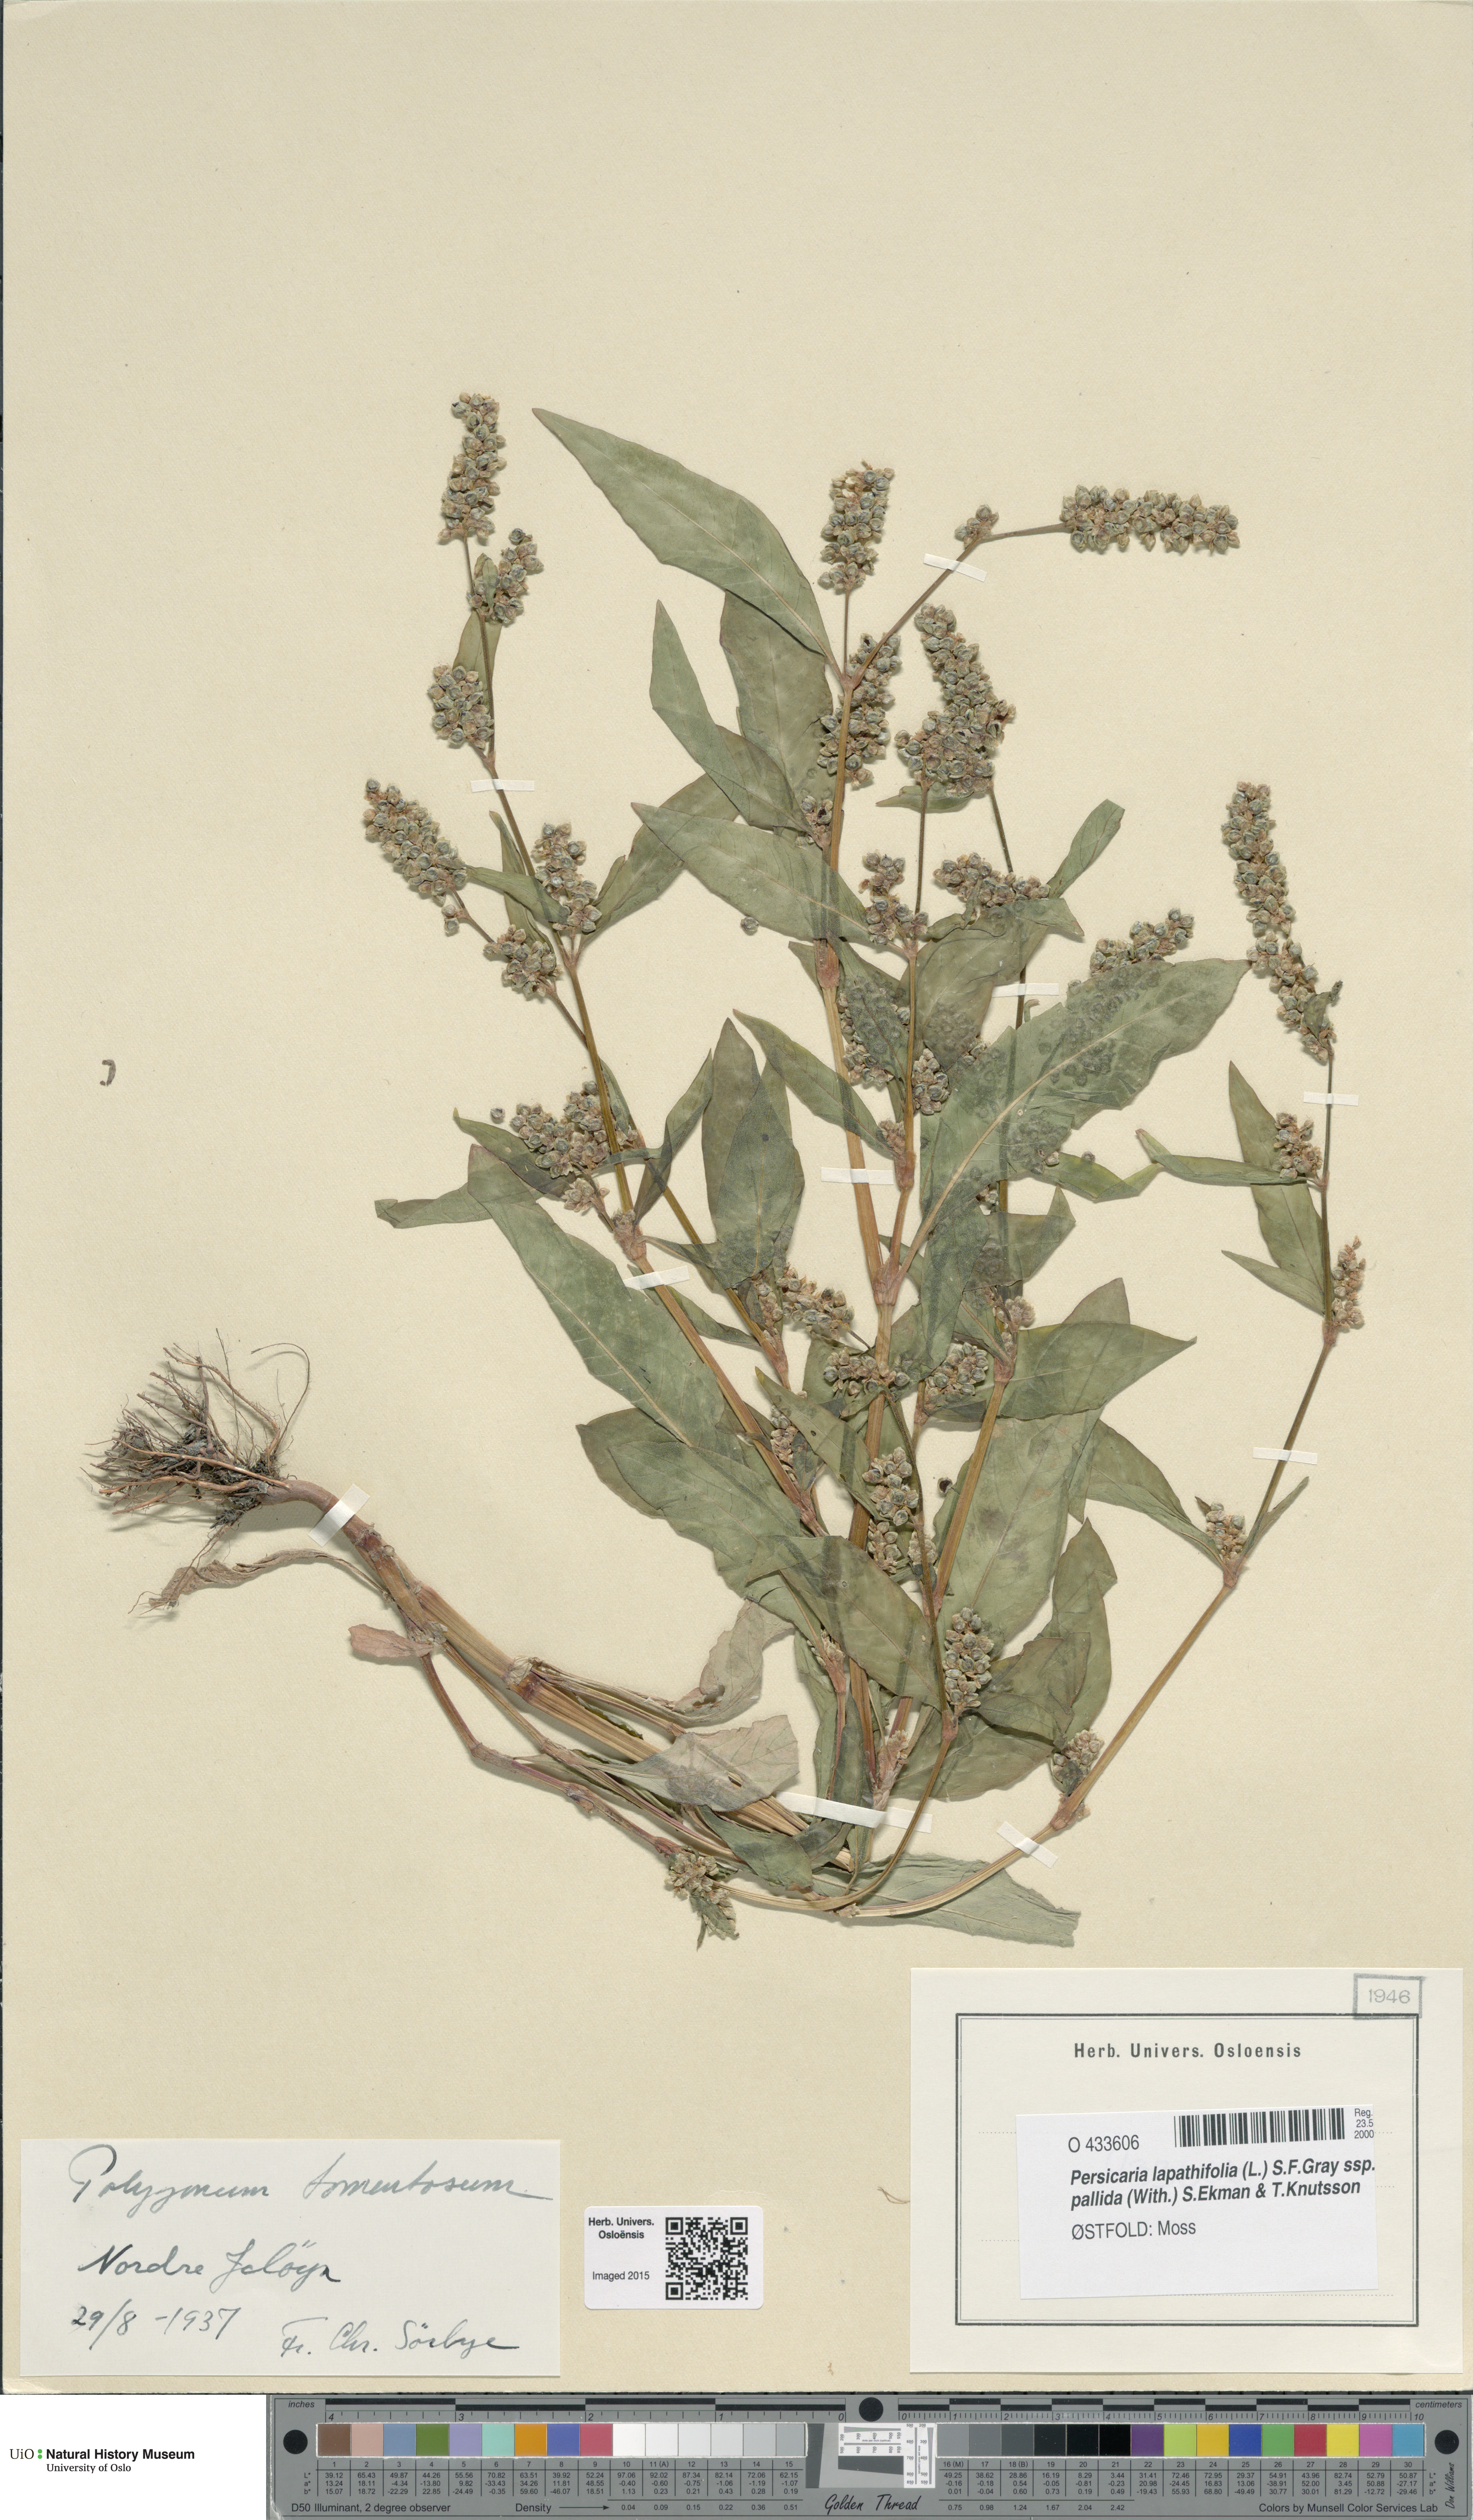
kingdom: Plantae
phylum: Tracheophyta
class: Magnoliopsida
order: Caryophyllales
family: Polygonaceae
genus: Persicaria
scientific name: Persicaria lapathifolia
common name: Curlytop knotweed
